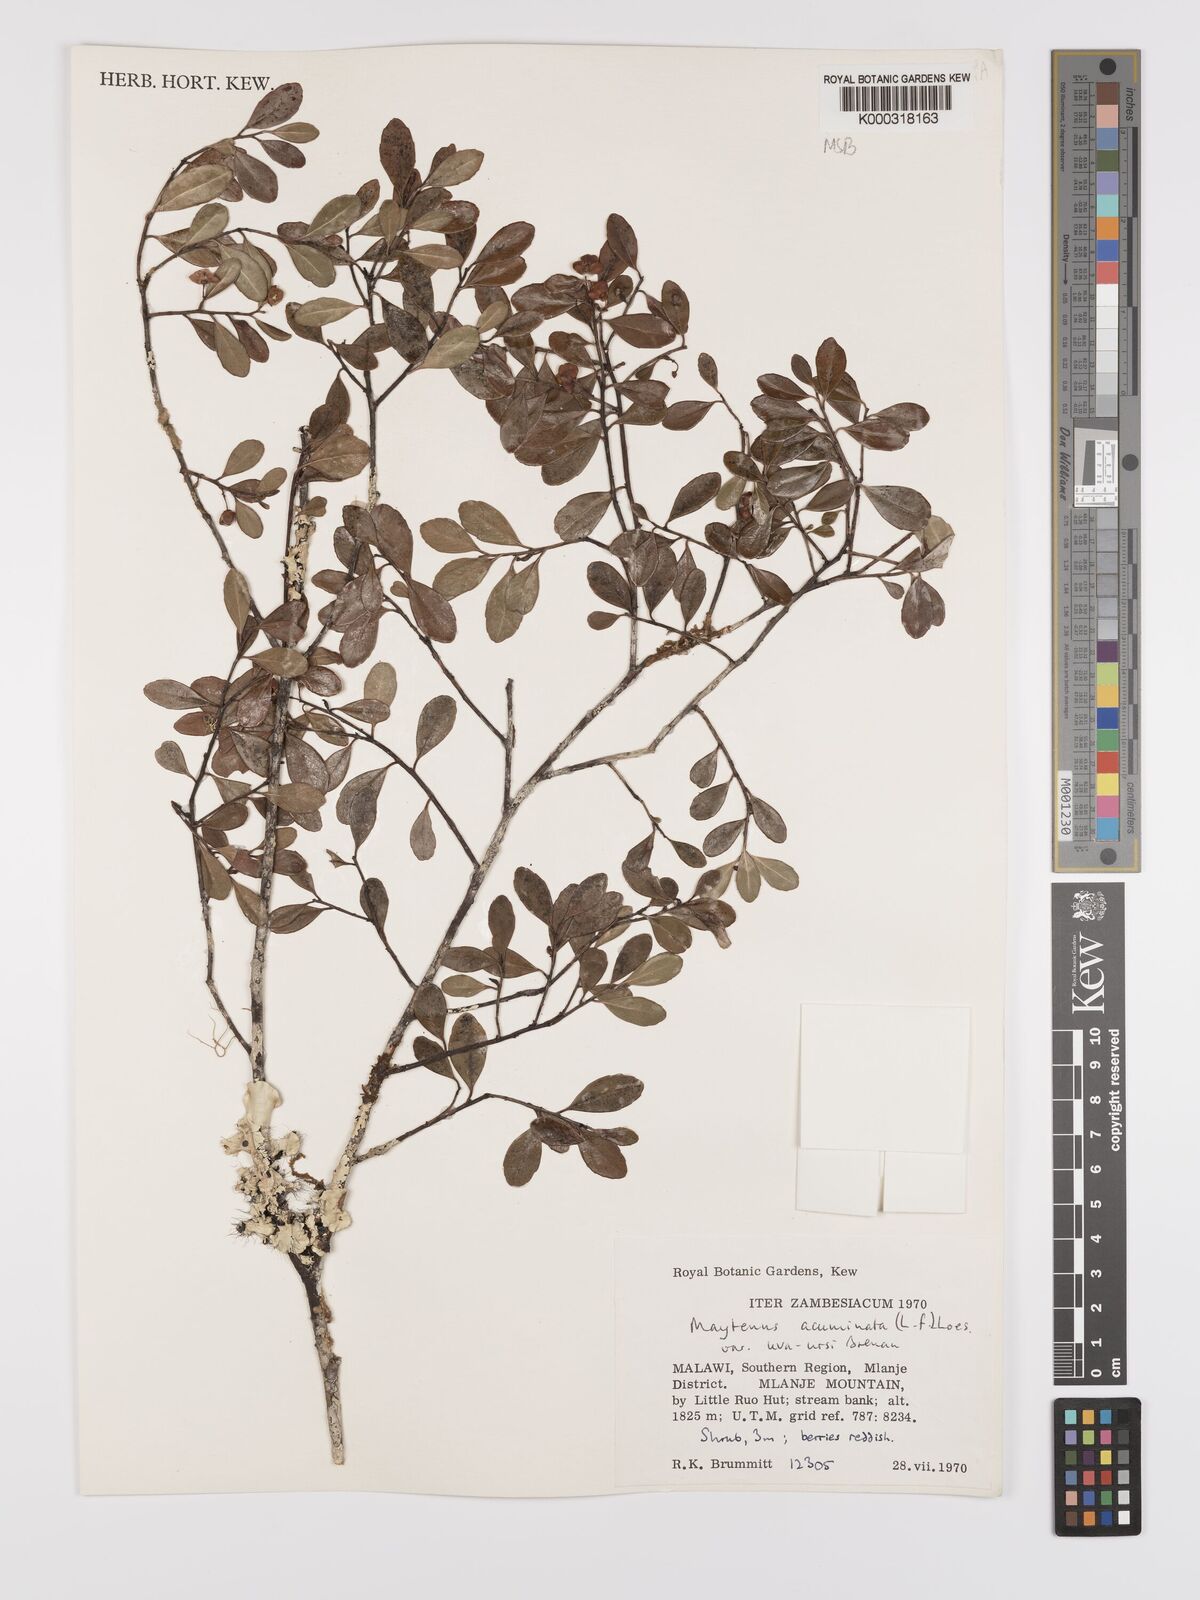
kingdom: Plantae
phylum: Tracheophyta
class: Magnoliopsida
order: Celastrales
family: Celastraceae
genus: Maytenus
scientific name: Maytenus
